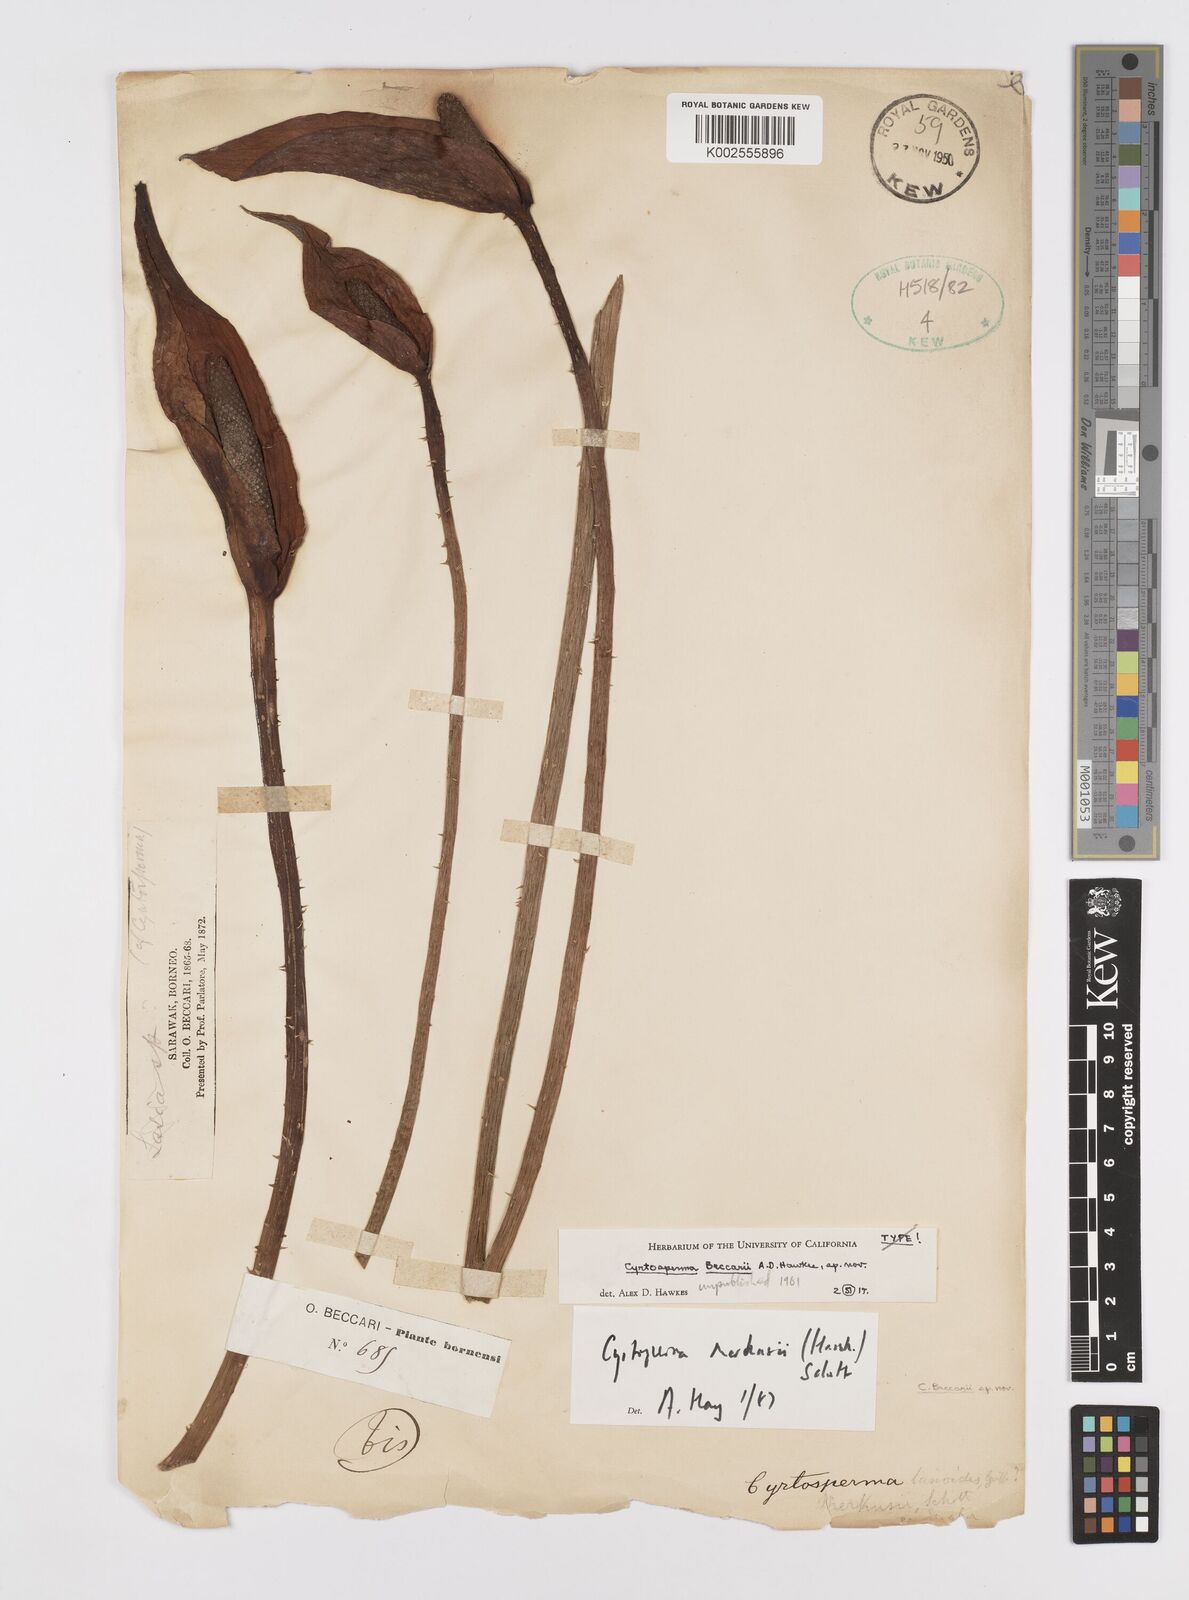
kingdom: Plantae
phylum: Tracheophyta
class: Liliopsida
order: Alismatales
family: Araceae
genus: Cyrtosperma
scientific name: Cyrtosperma merkusii
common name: Giant swamp-taro
